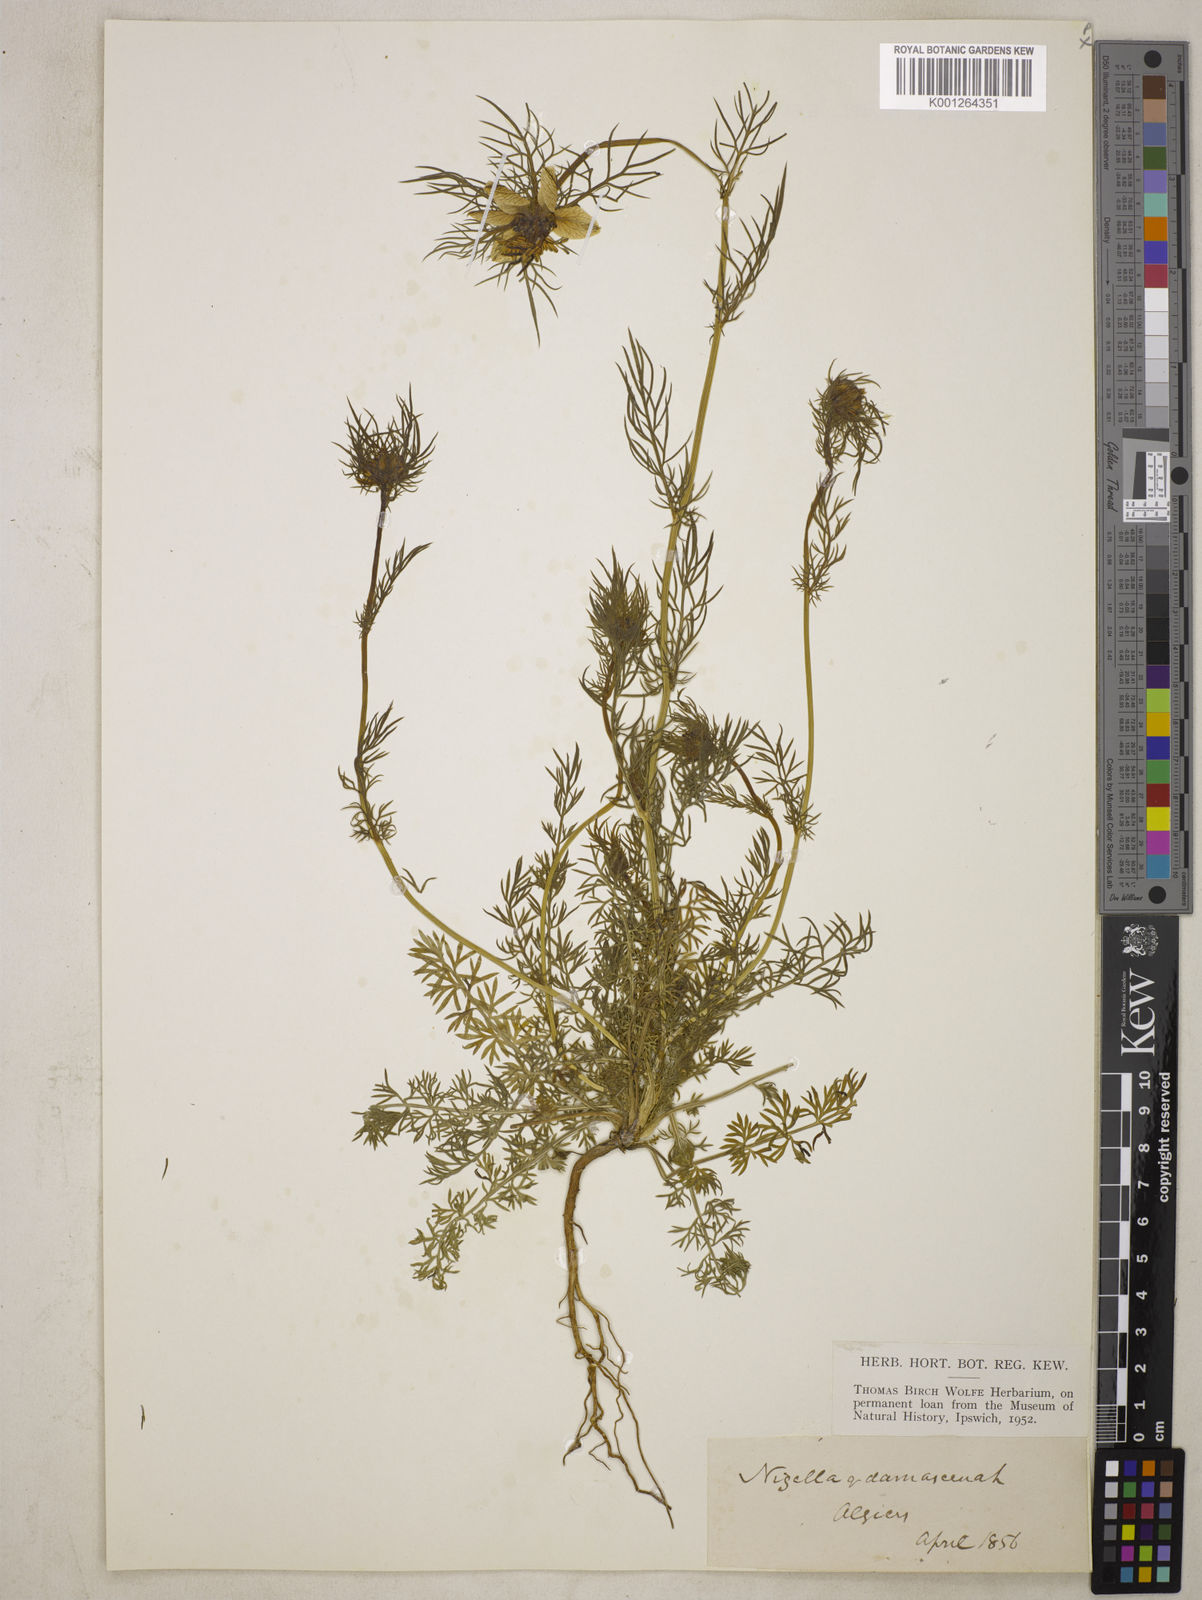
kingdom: Plantae
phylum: Tracheophyta
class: Magnoliopsida
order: Ranunculales
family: Ranunculaceae
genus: Nigella
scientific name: Nigella damascena
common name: Love-in-a-mist
